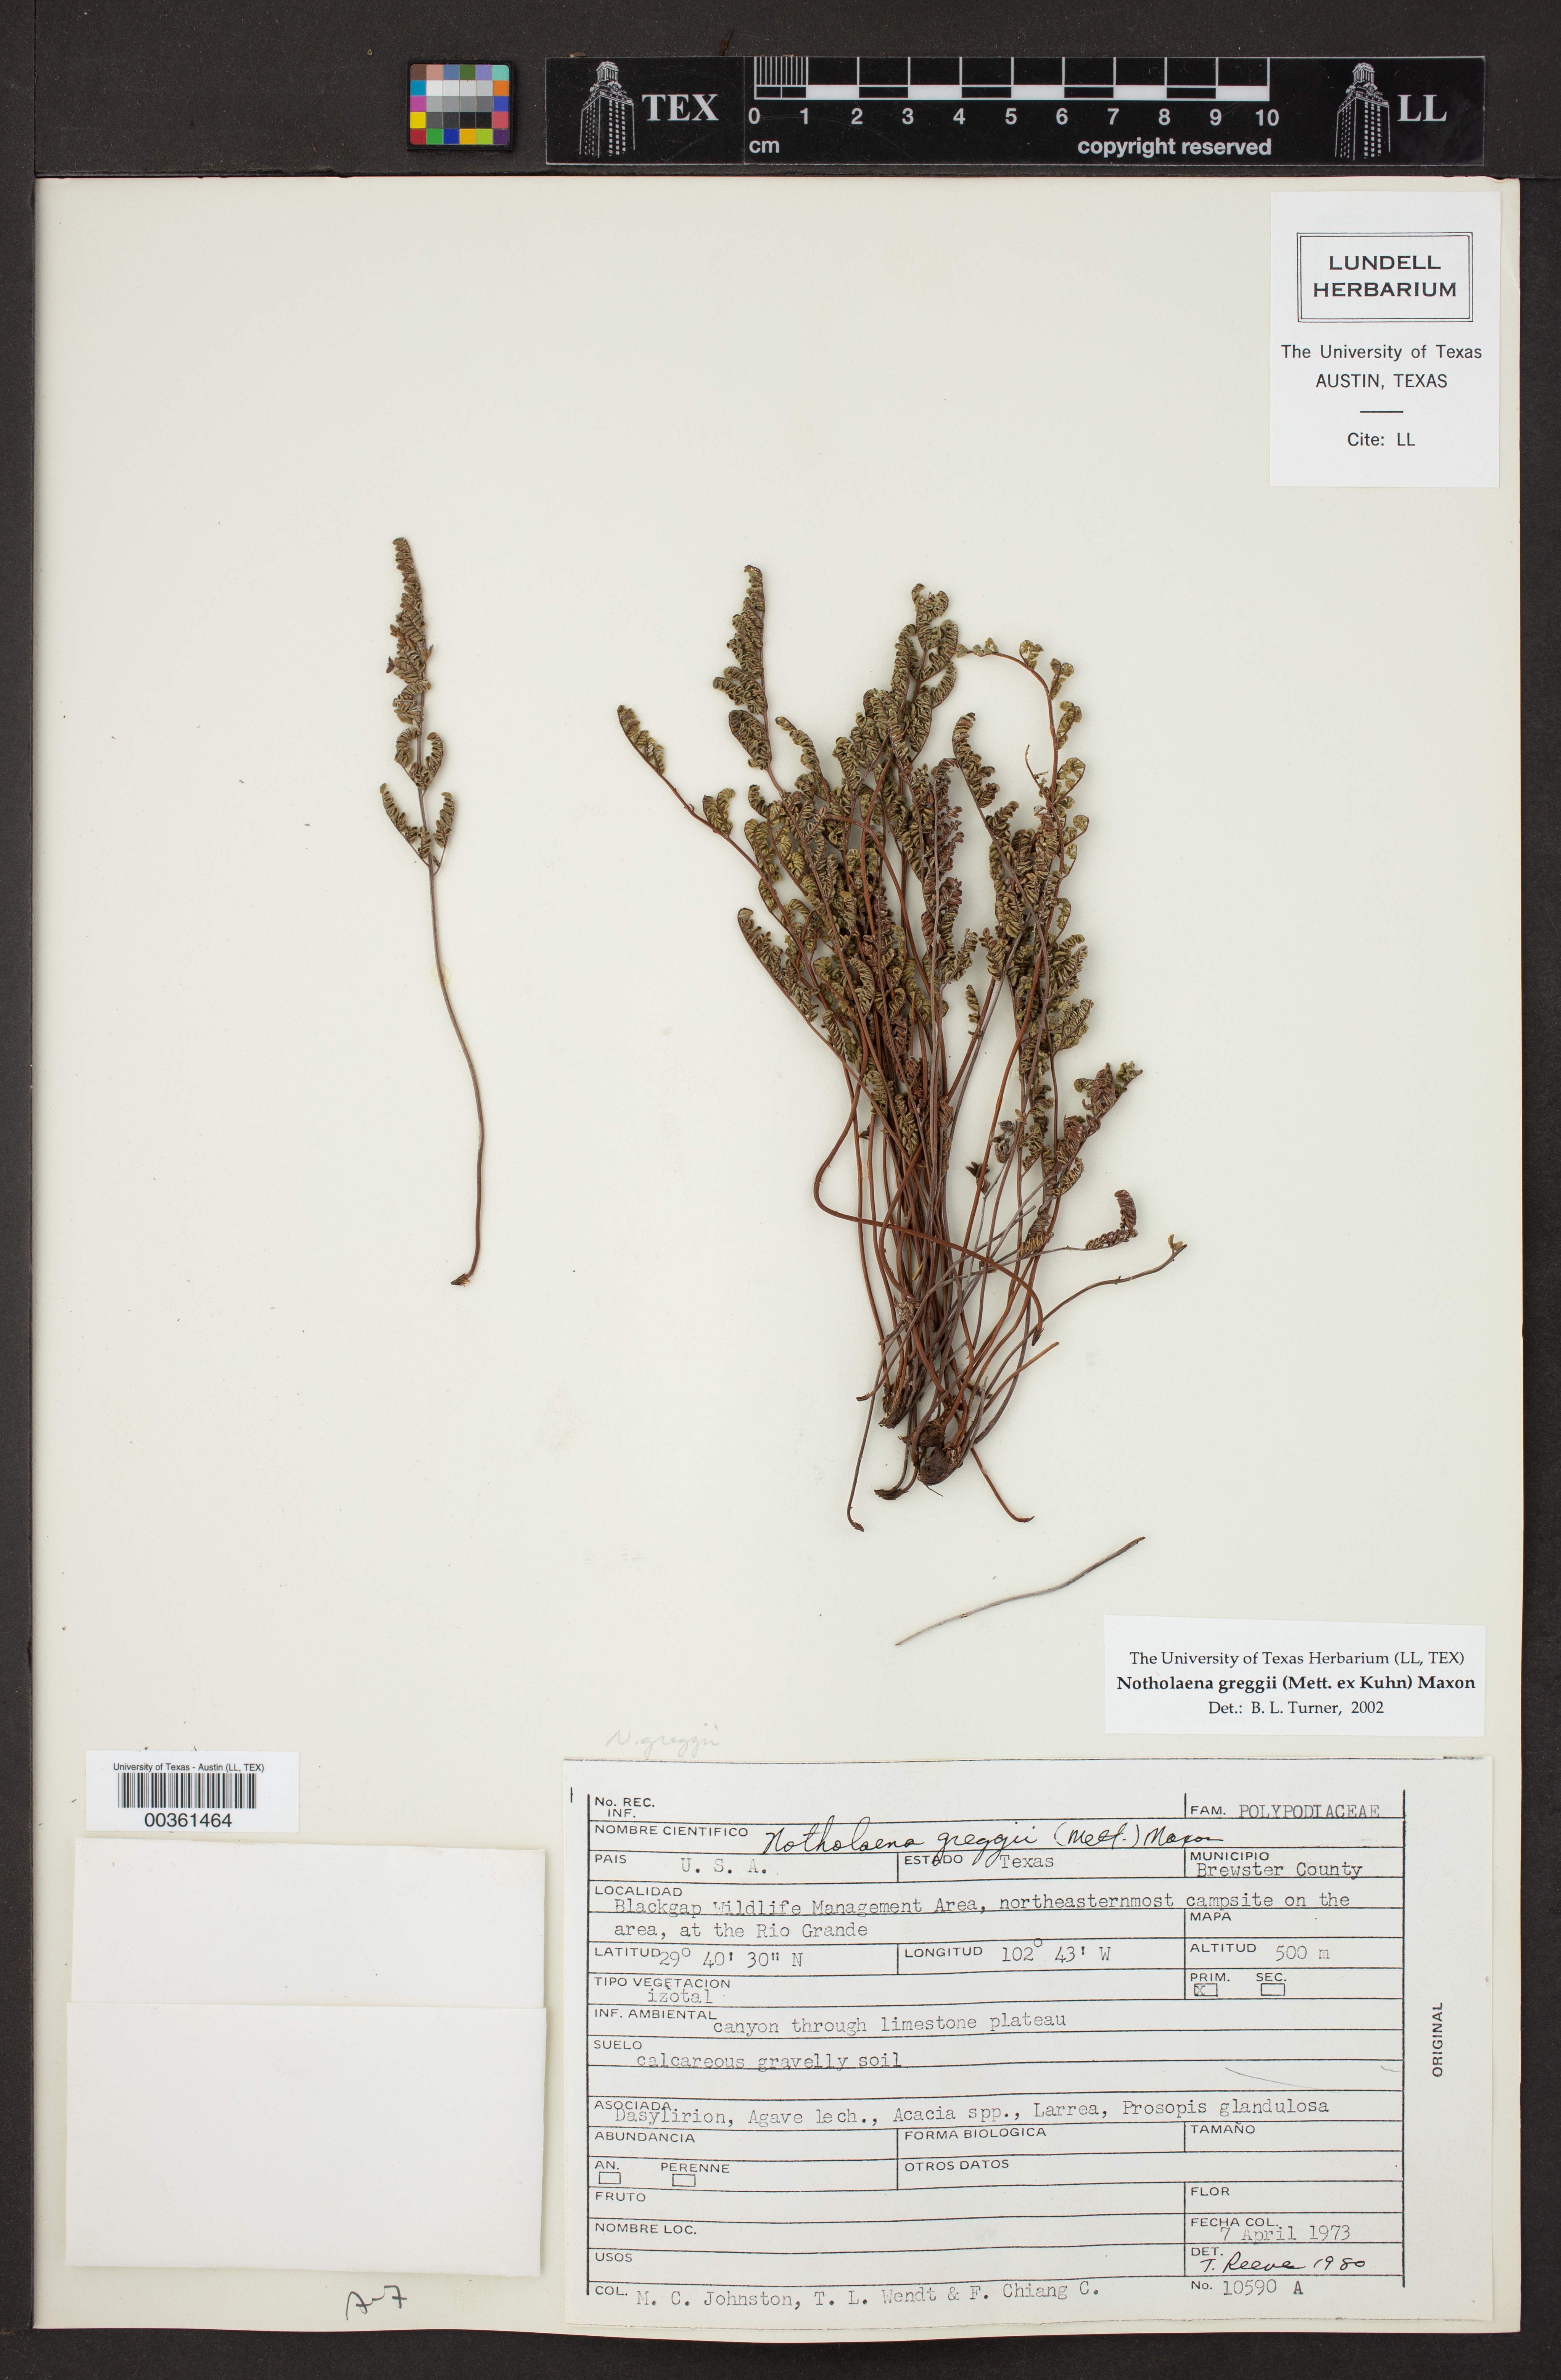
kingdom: Plantae
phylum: Tracheophyta
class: Polypodiopsida
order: Polypodiales
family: Pteridaceae
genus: Notholaena
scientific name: Notholaena greggii
